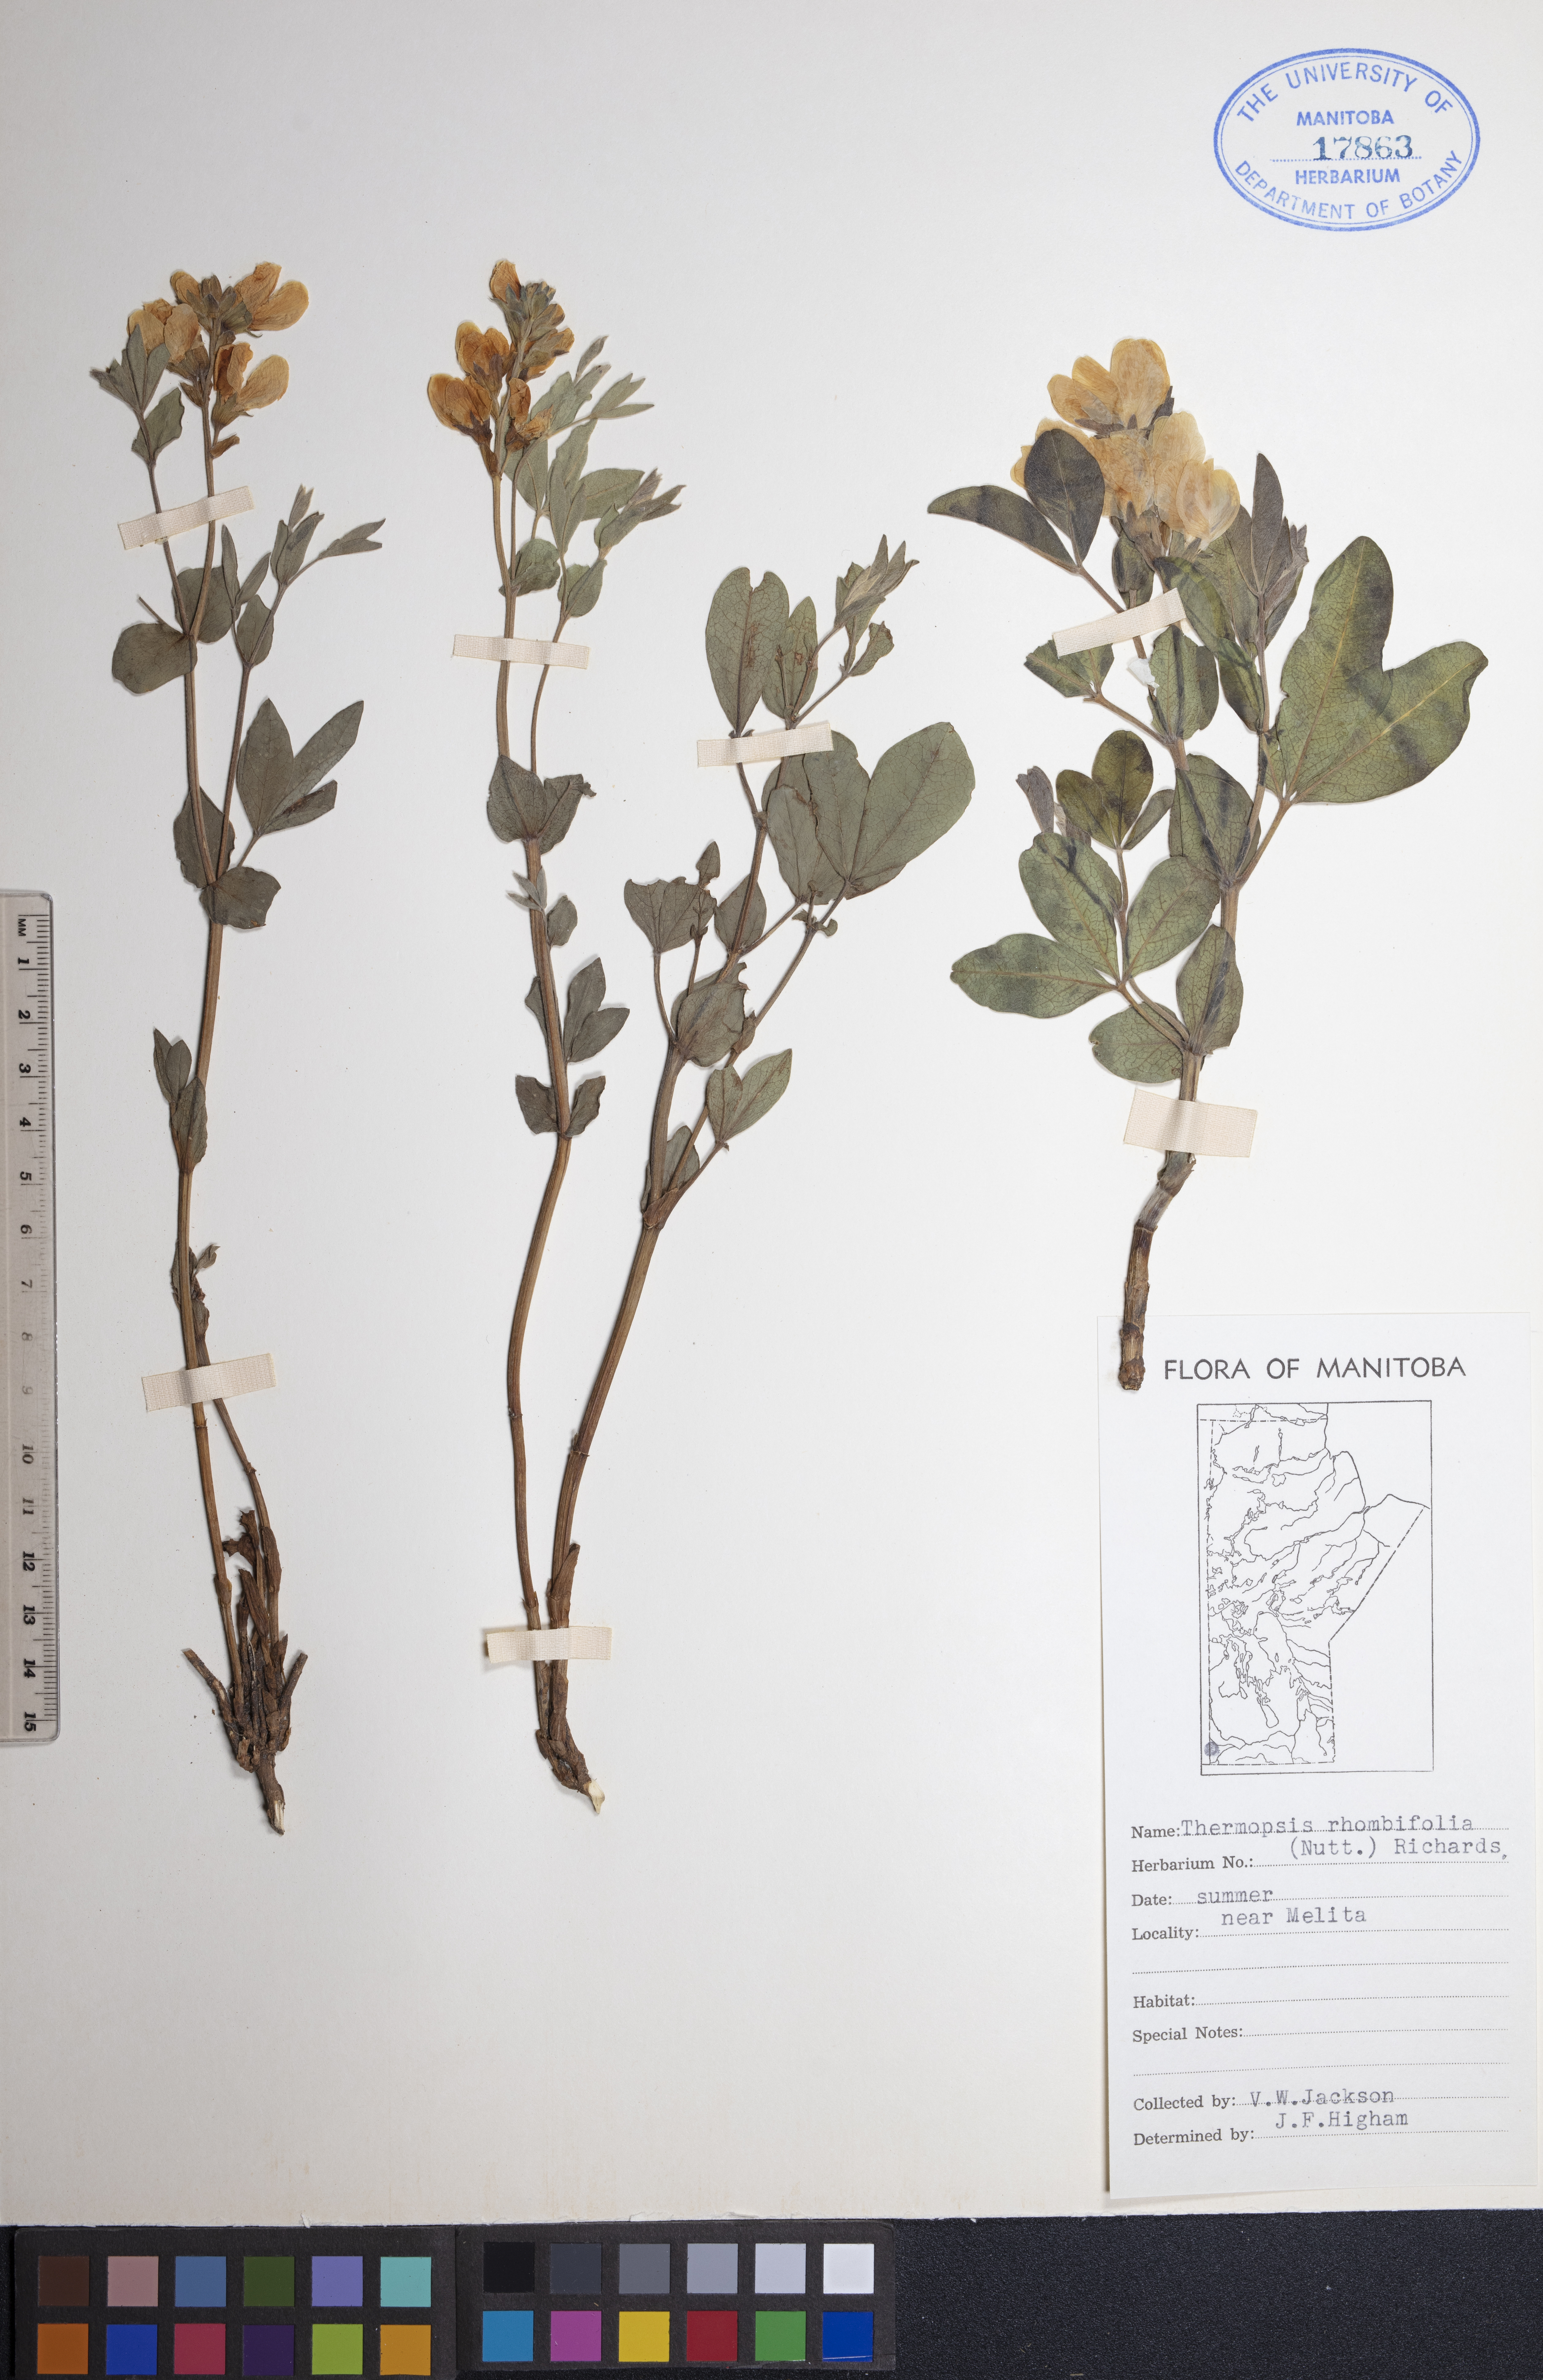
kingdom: Plantae
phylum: Tracheophyta
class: Magnoliopsida
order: Fabales
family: Fabaceae
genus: Thermopsis
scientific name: Thermopsis rhombifolia
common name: Circle-pod-pea
